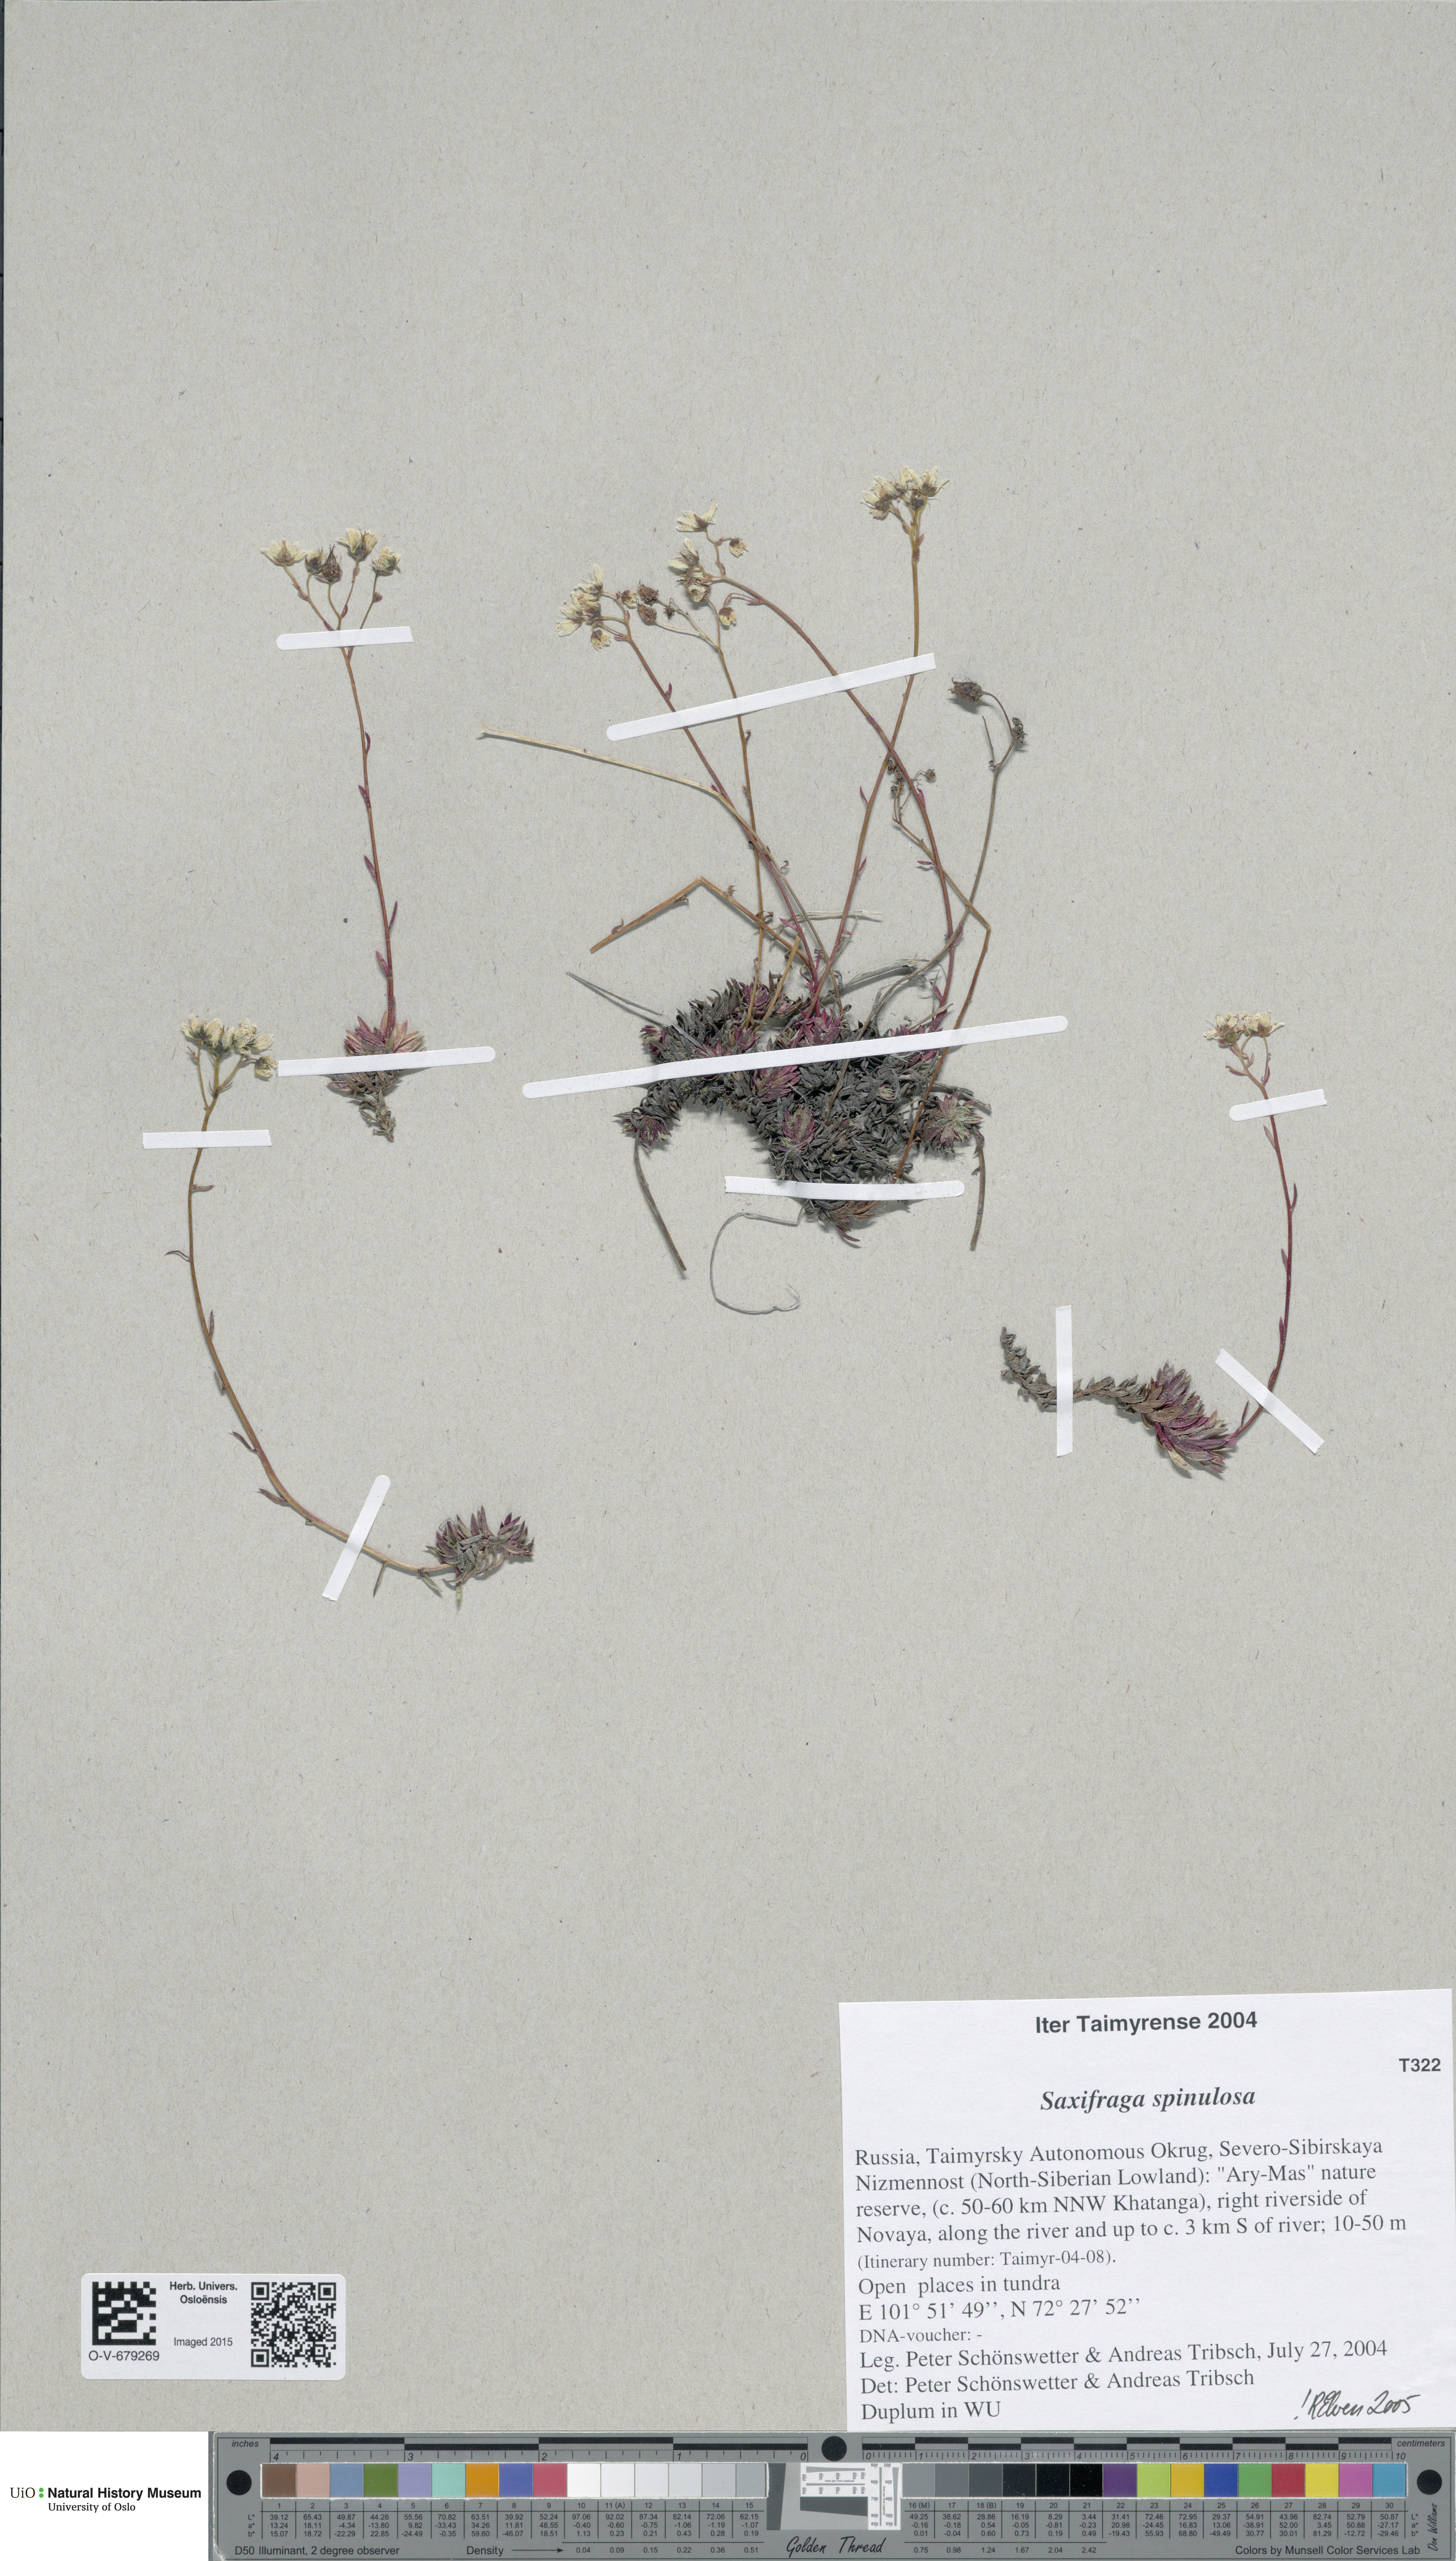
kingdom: Plantae
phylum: Tracheophyta
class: Magnoliopsida
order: Saxifragales
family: Saxifragaceae
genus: Saxifraga
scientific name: Saxifraga bronchialis
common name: Matted saxifrage
